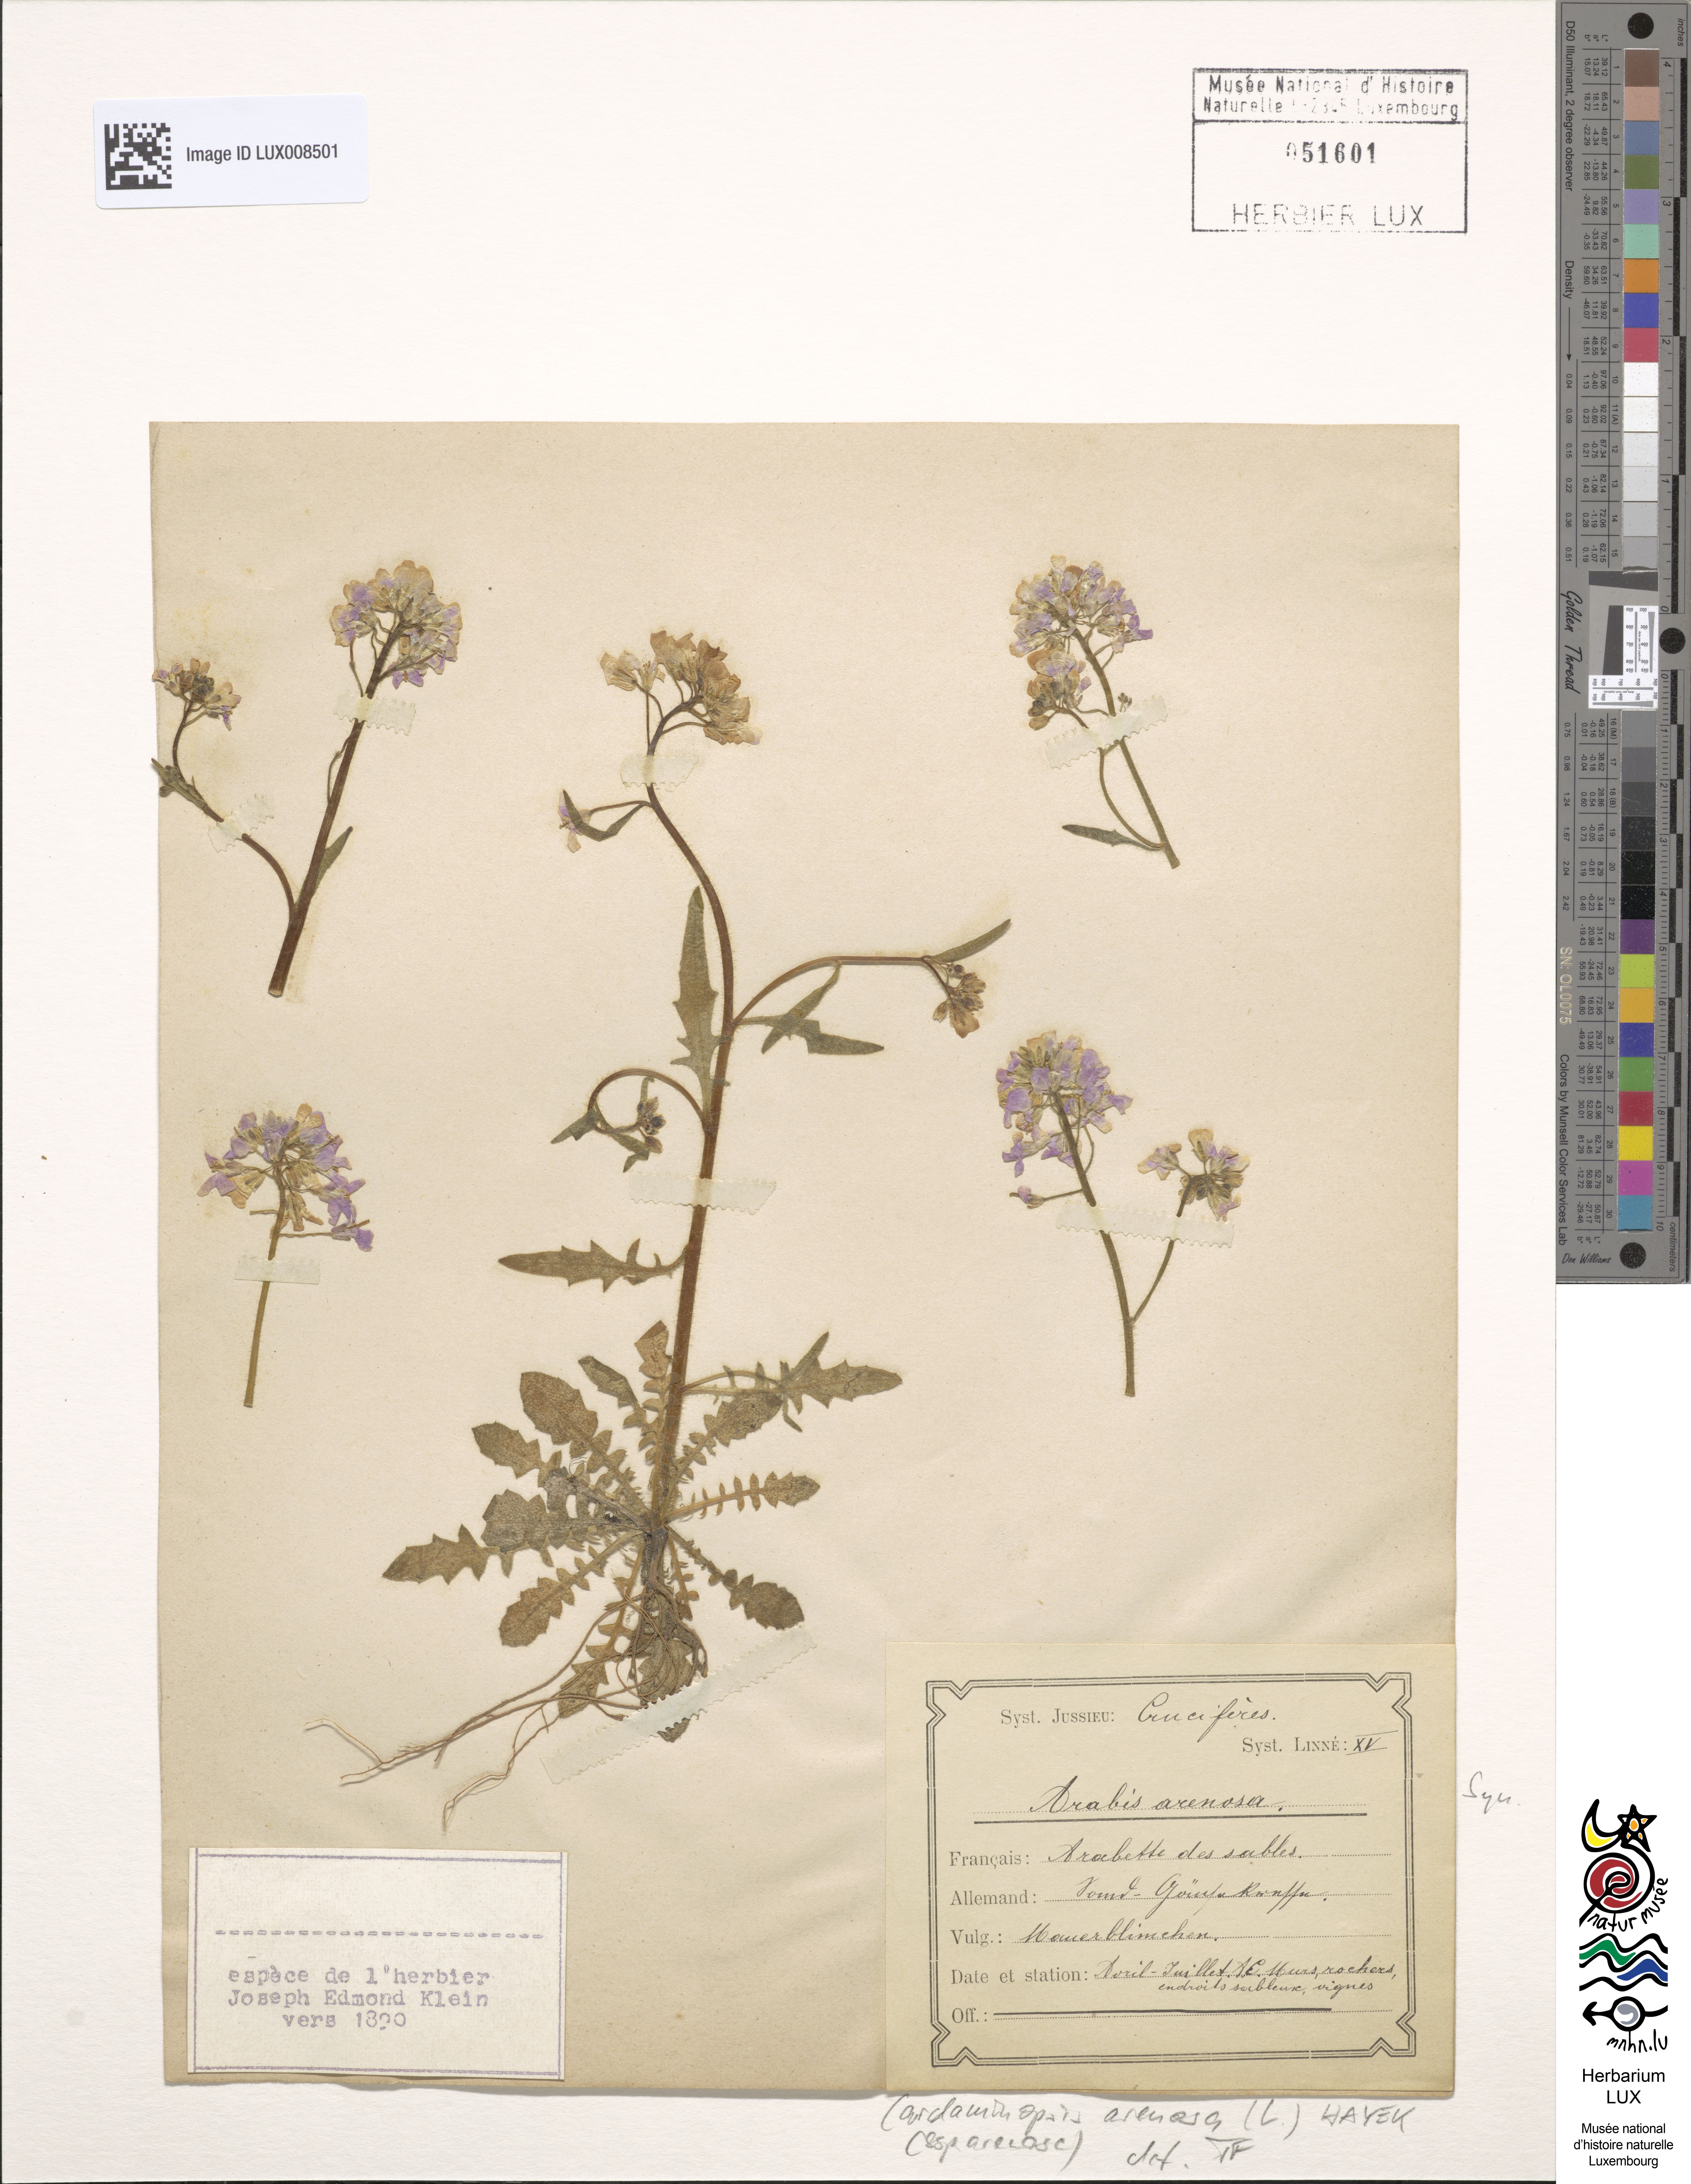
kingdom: Plantae
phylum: Tracheophyta
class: Magnoliopsida
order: Brassicales
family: Brassicaceae
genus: Arabidopsis
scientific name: Arabidopsis arenosa
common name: Sand rock-cress
